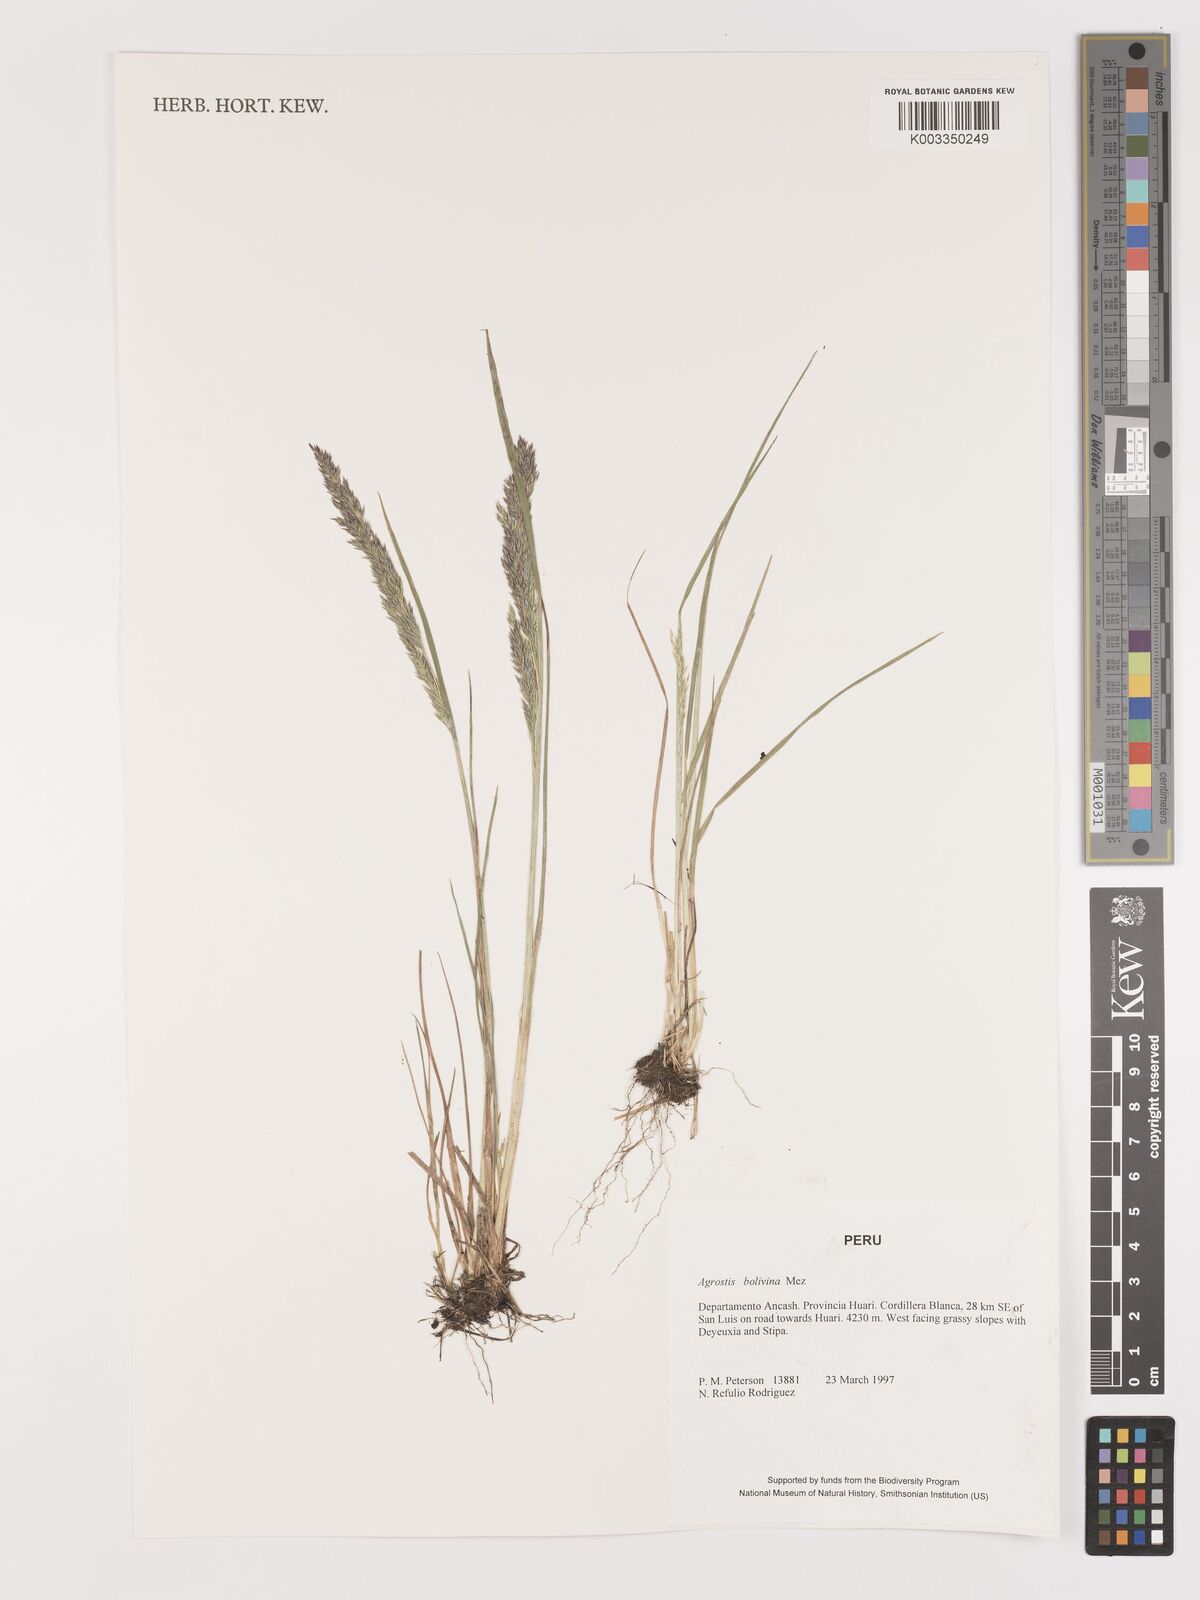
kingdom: Plantae
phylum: Tracheophyta
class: Liliopsida
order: Poales
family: Poaceae
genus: Agrostis
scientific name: Agrostis
